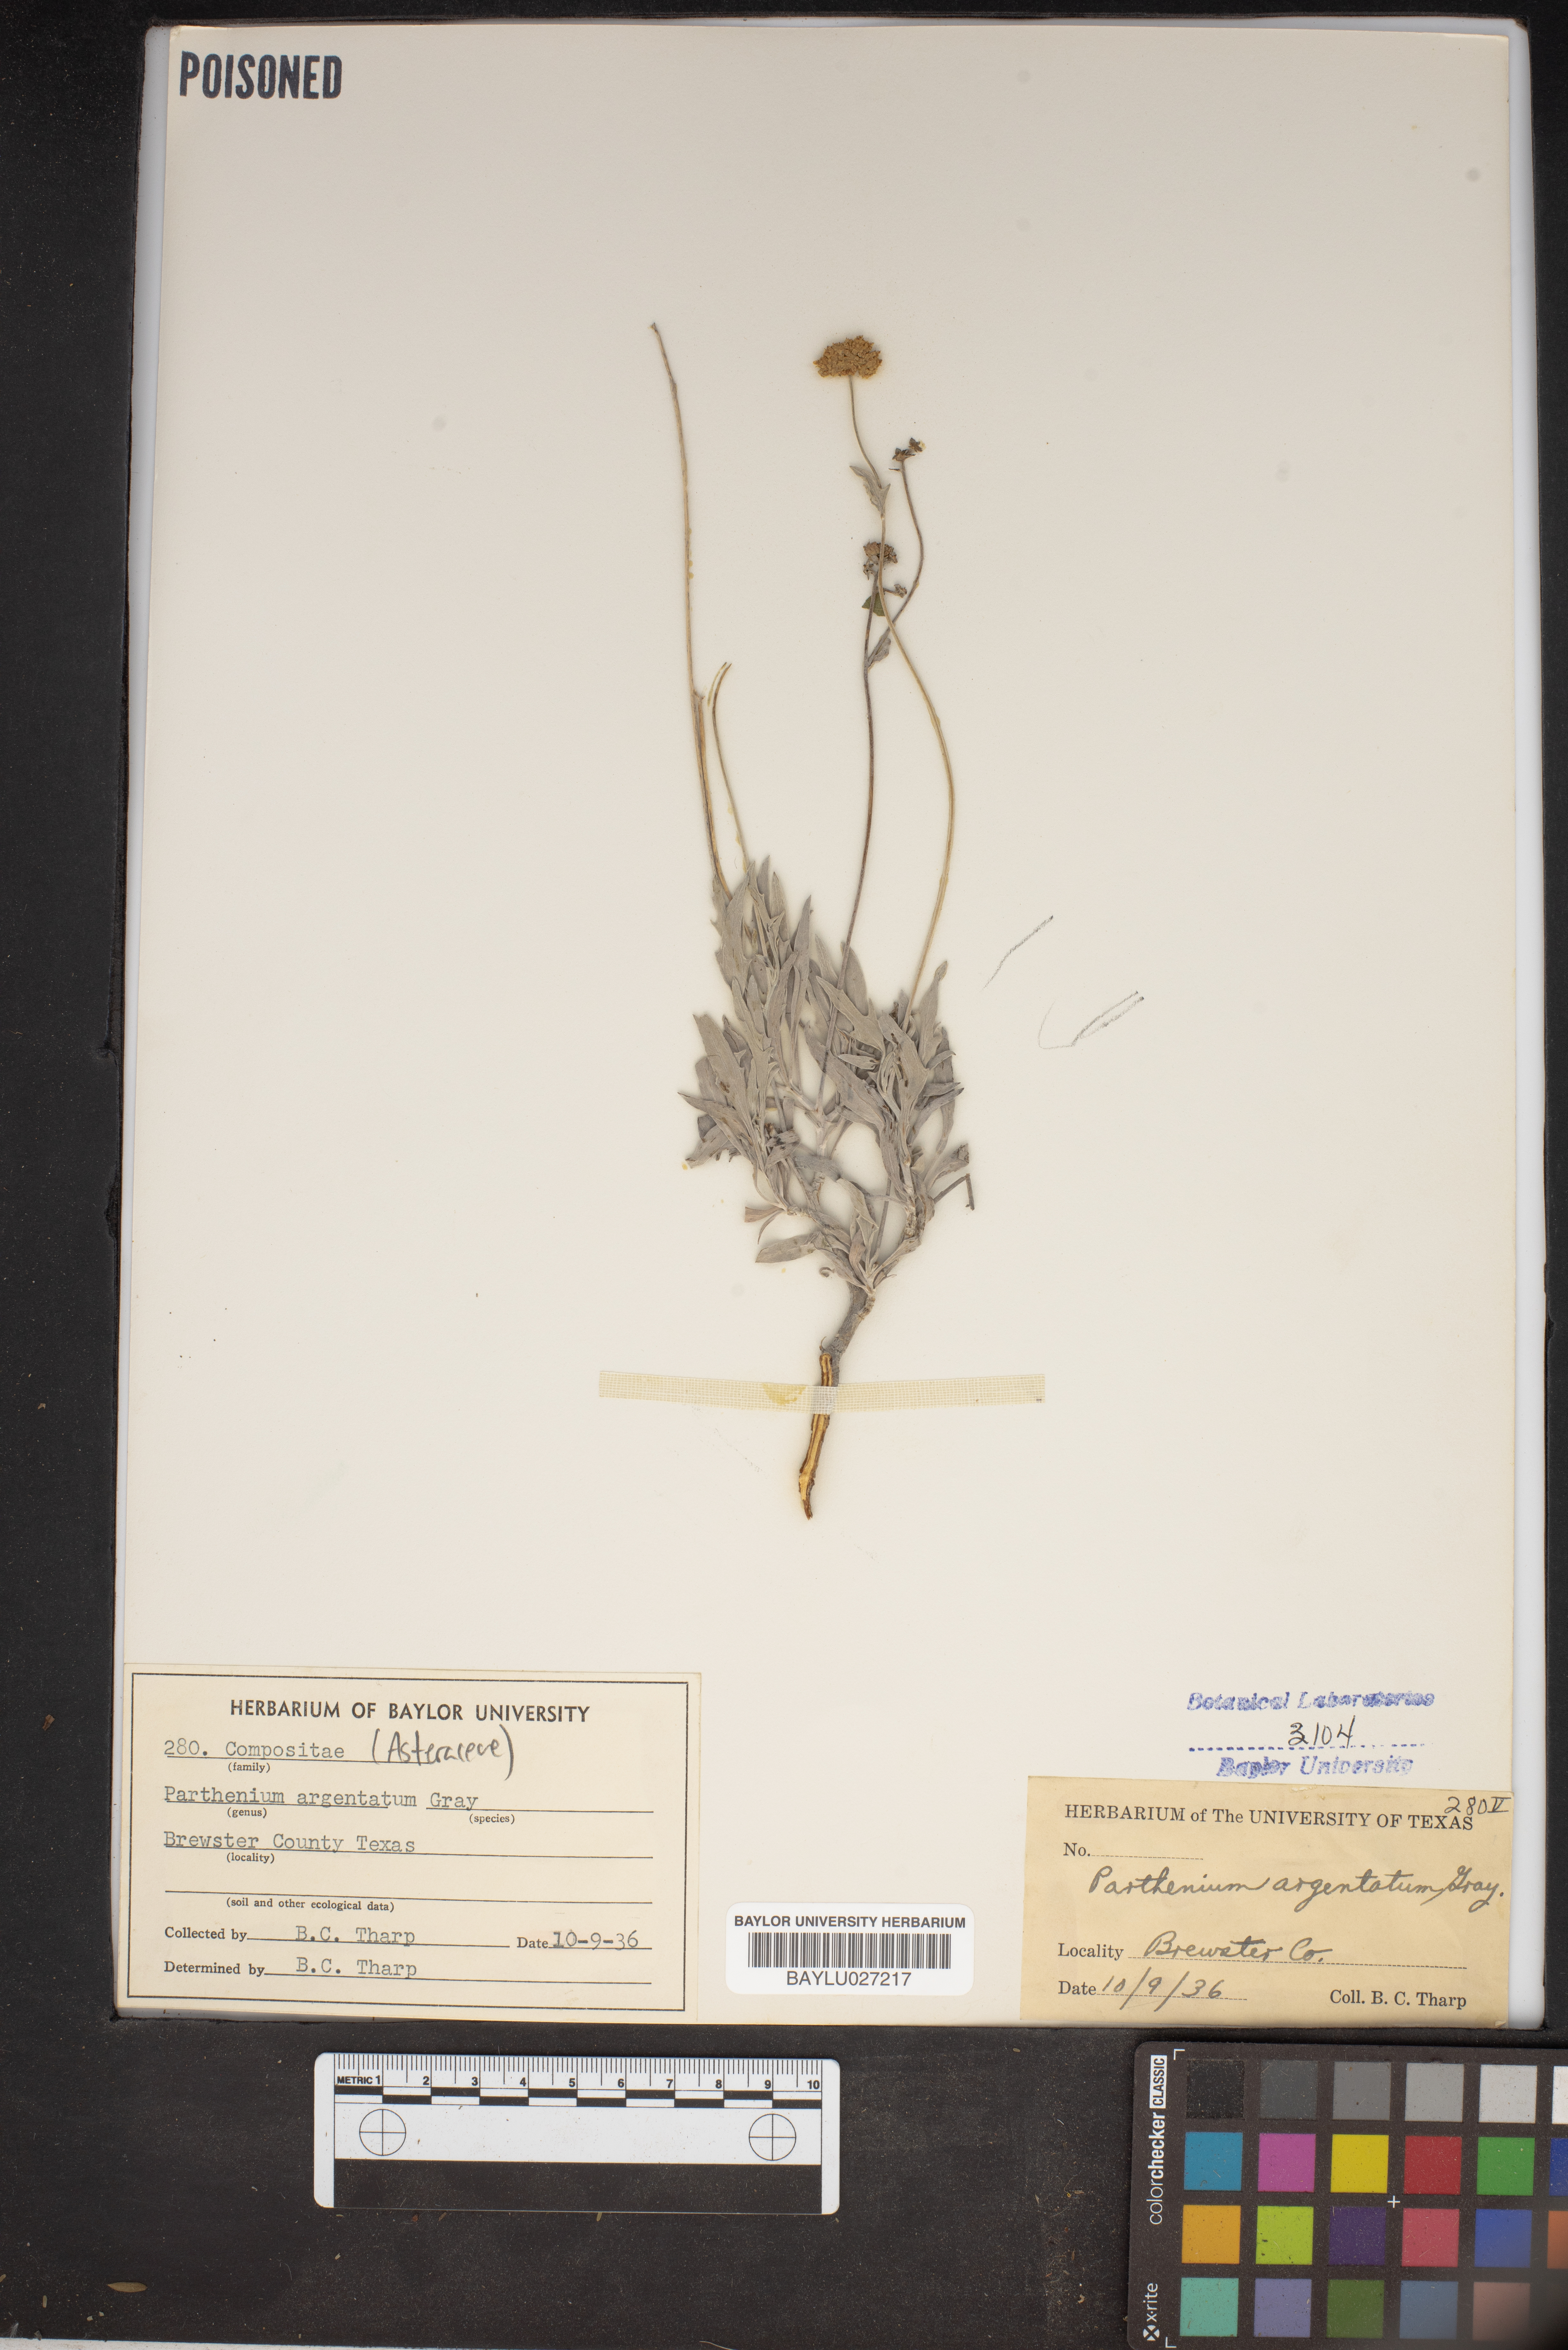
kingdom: Plantae
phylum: Tracheophyta
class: Magnoliopsida
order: Asterales
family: Asteraceae
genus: Parthenium
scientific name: Parthenium argentatum
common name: Guayule
